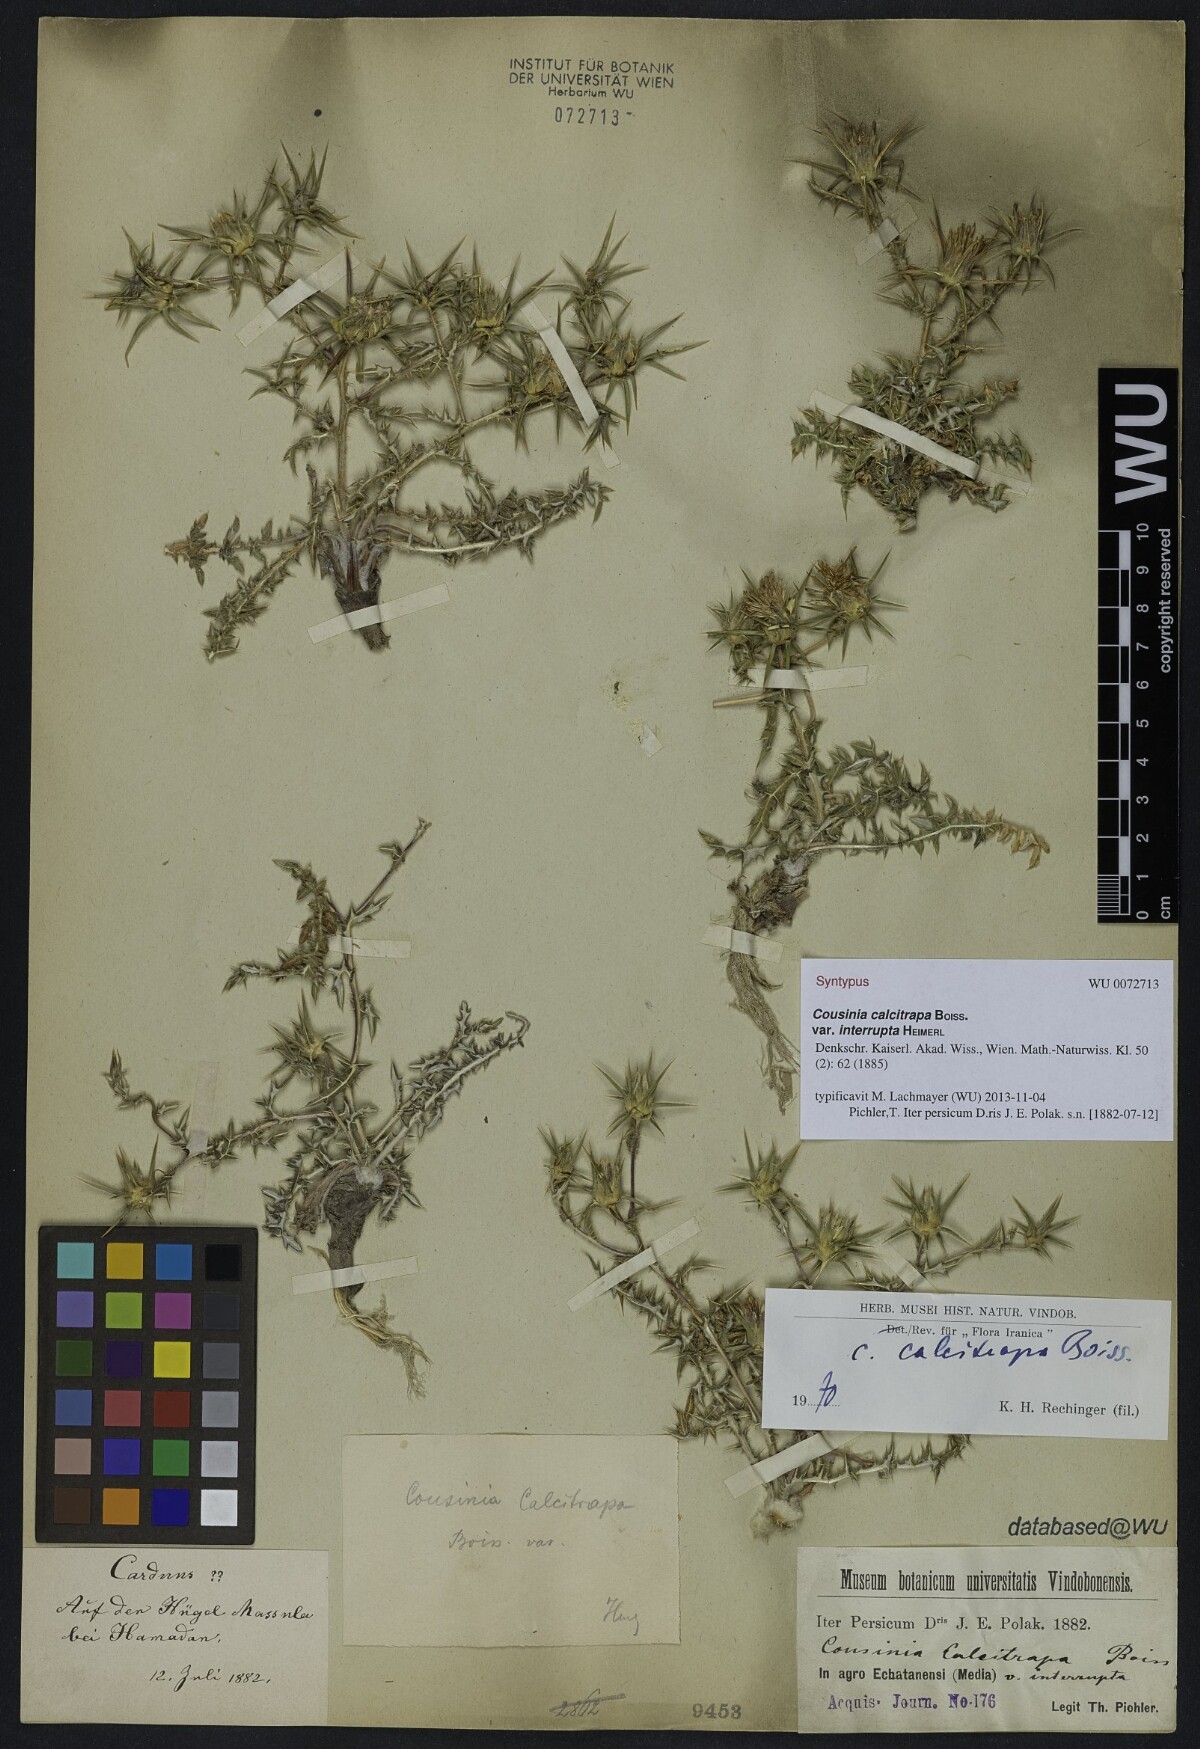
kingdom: Plantae
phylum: Tracheophyta
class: Magnoliopsida
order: Asterales
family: Asteraceae
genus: Cousinia
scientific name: Cousinia calcitrapa
